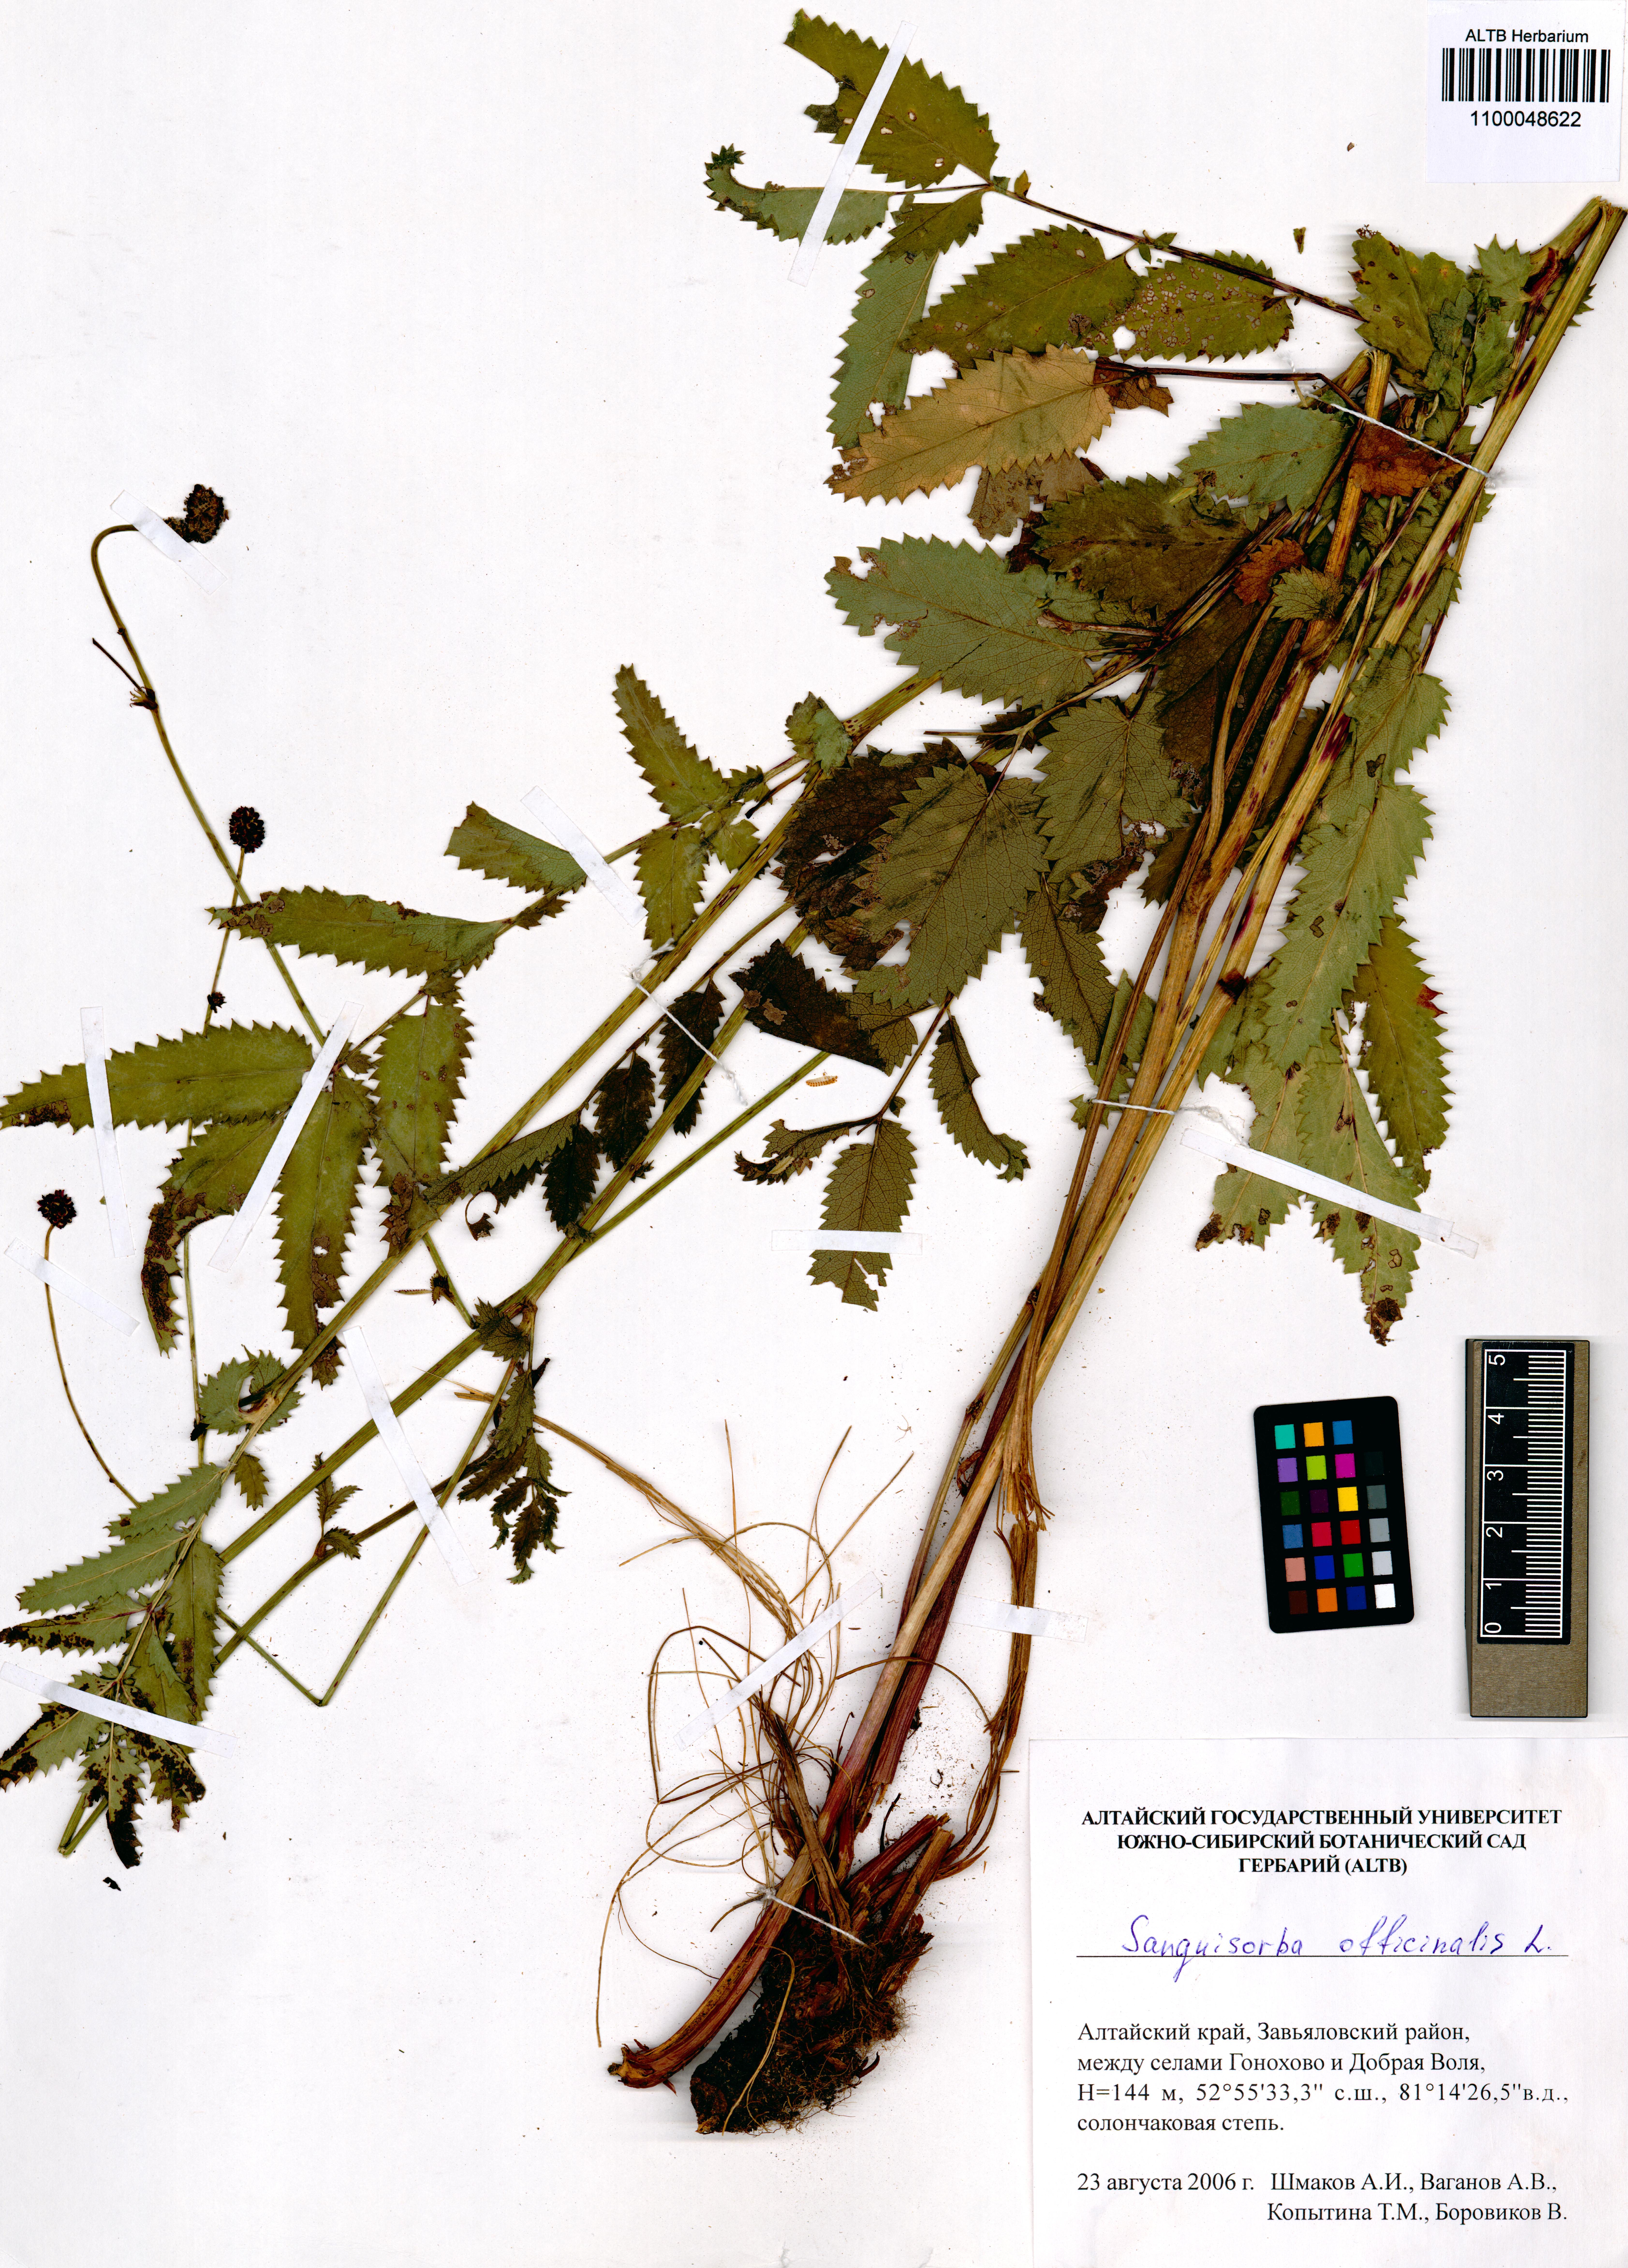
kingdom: Plantae
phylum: Tracheophyta
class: Magnoliopsida
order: Rosales
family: Rosaceae
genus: Sanguisorba
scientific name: Sanguisorba officinalis
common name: Great burnet
